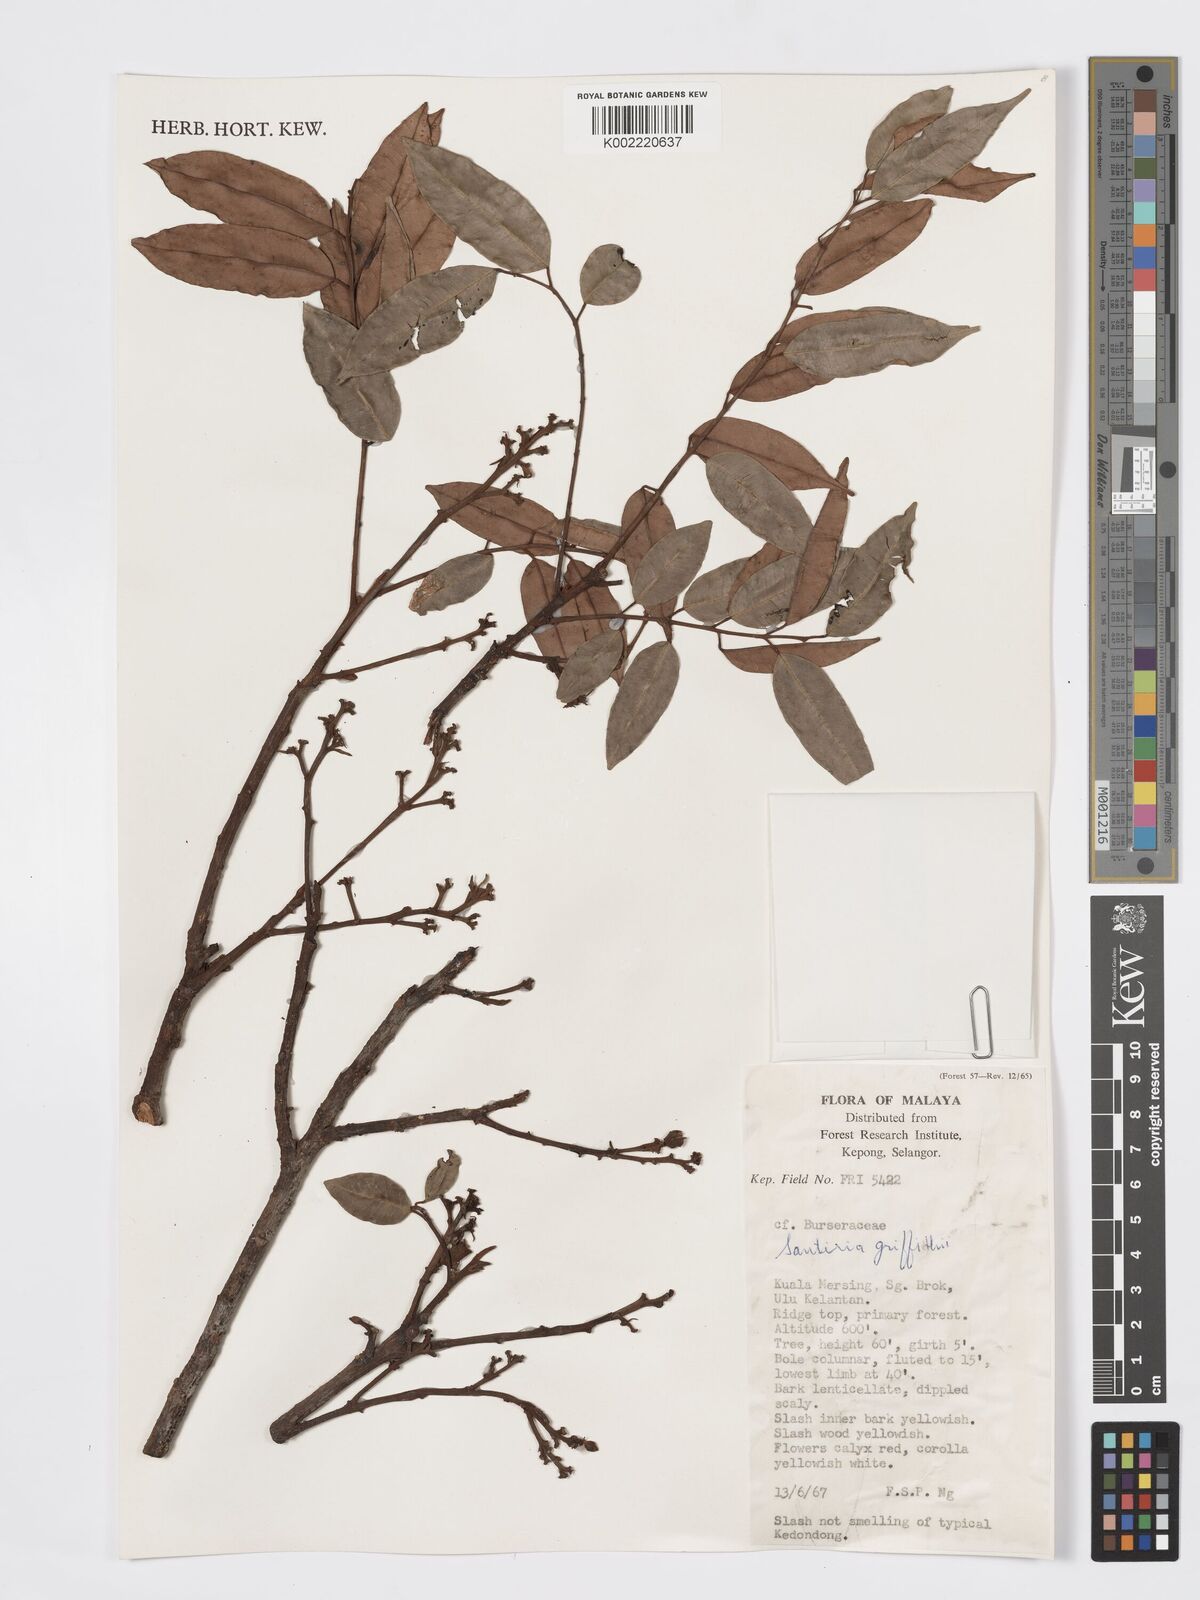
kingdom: Plantae
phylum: Tracheophyta
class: Magnoliopsida
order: Sapindales
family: Burseraceae
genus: Santiria
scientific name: Santiria griffithii
